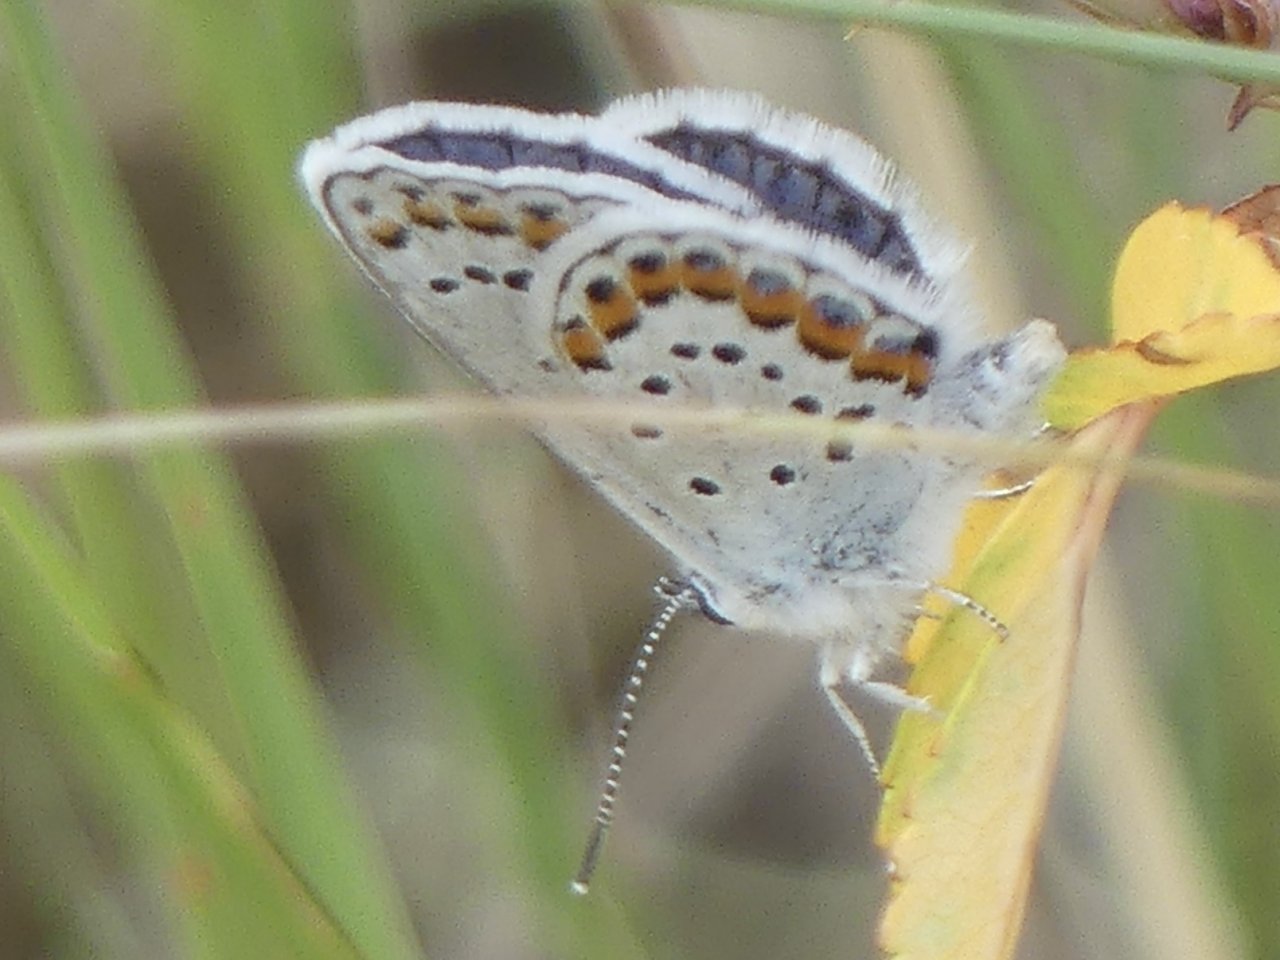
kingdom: Animalia
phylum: Arthropoda
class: Insecta
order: Lepidoptera
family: Lycaenidae
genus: Lycaeides
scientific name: Lycaeides melissa
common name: Melissa Blue
